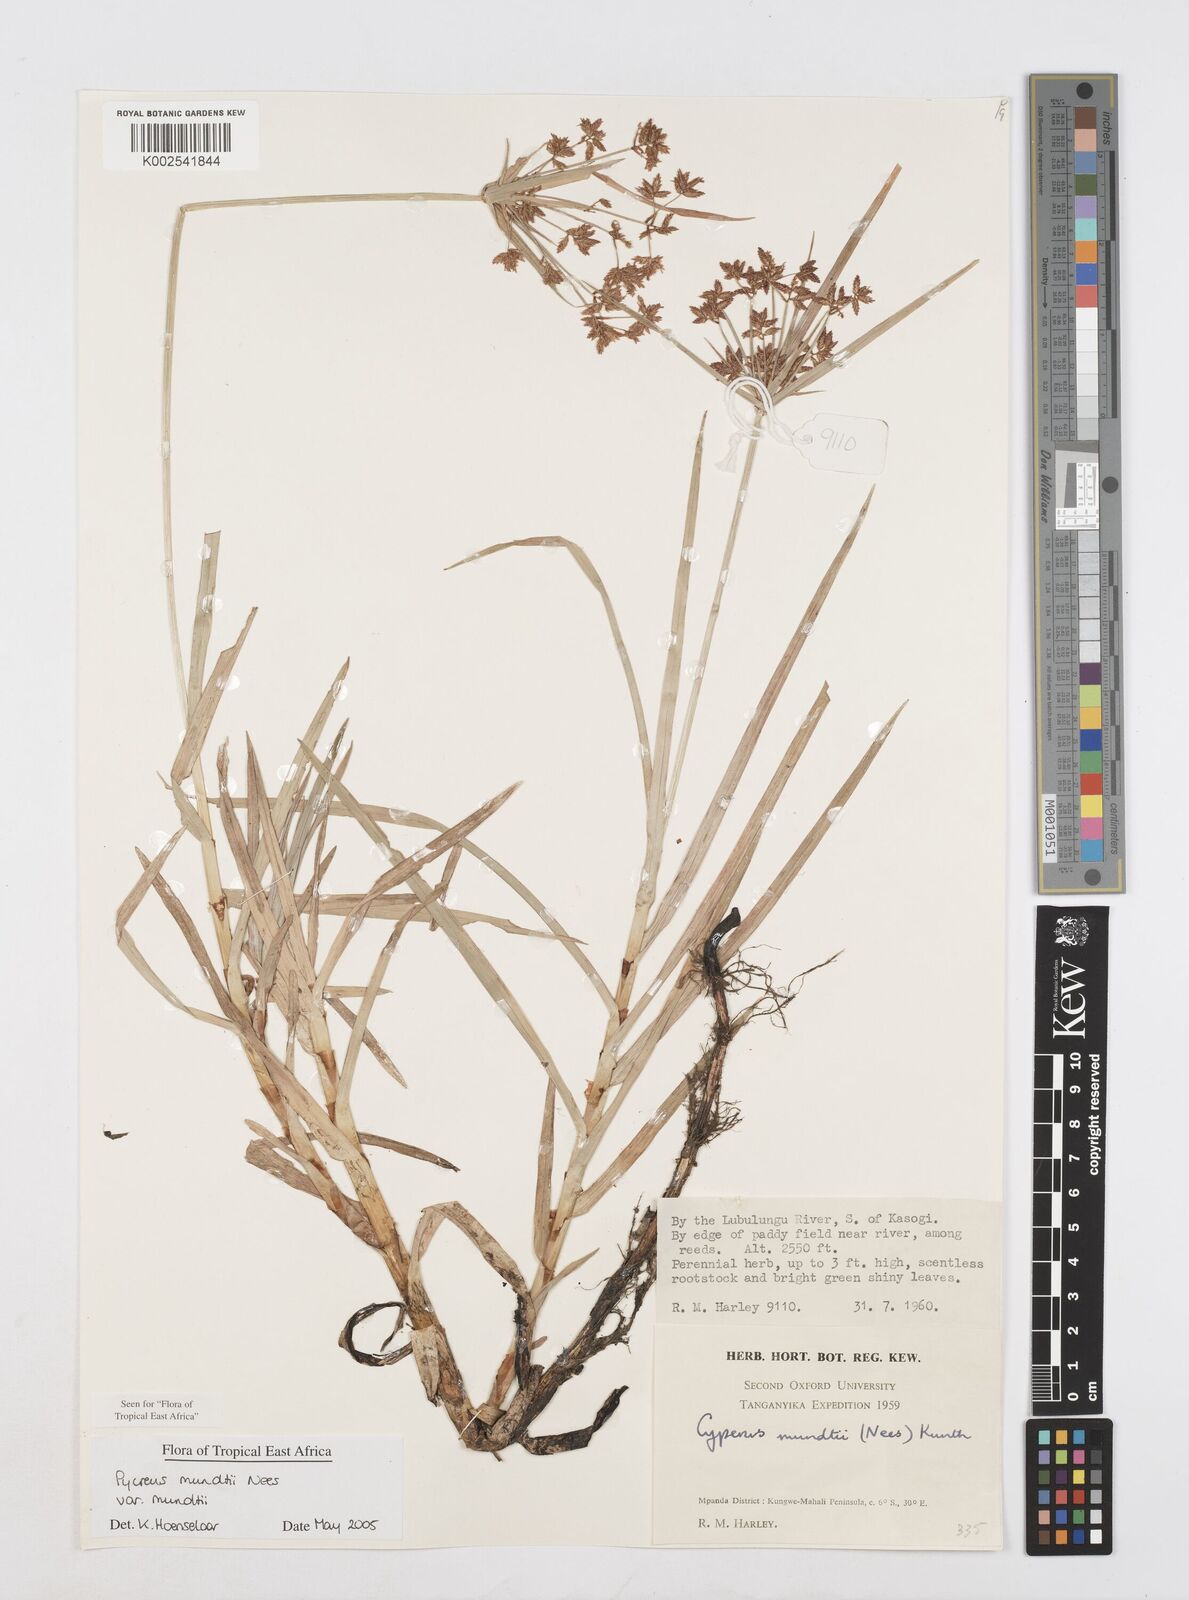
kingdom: Plantae
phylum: Tracheophyta
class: Liliopsida
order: Poales
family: Cyperaceae
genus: Cyperus
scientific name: Cyperus mundii
